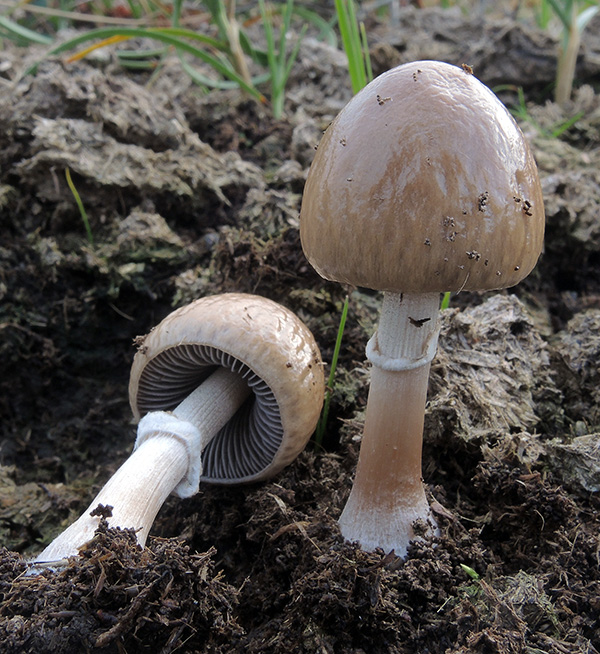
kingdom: Fungi
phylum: Basidiomycota
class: Agaricomycetes
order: Agaricales
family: Bolbitiaceae
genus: Panaeolus
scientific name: Panaeolus semiovatus
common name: ring-glanshat
